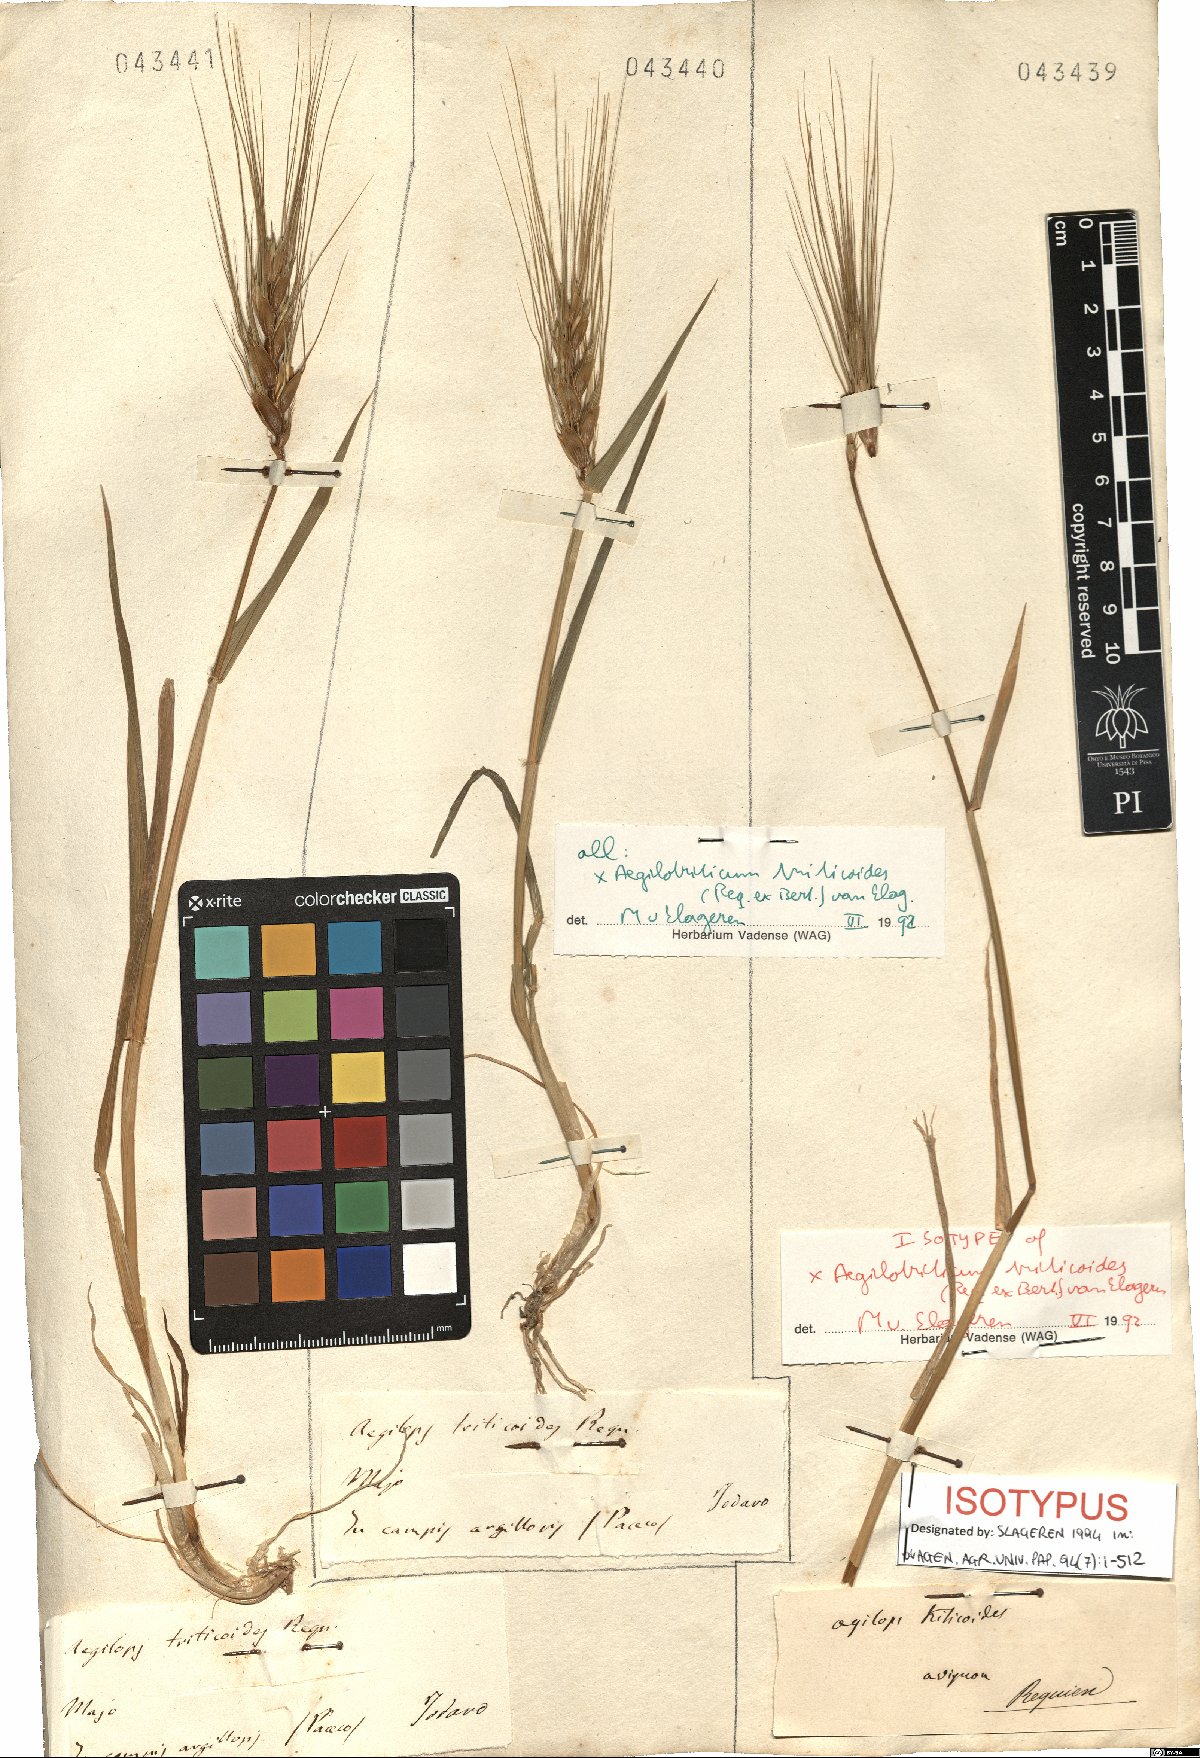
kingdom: Plantae
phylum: Tracheophyta
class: Liliopsida
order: Poales
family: Poaceae
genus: Aegilotriticum
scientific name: Aegilotriticum triticoides
